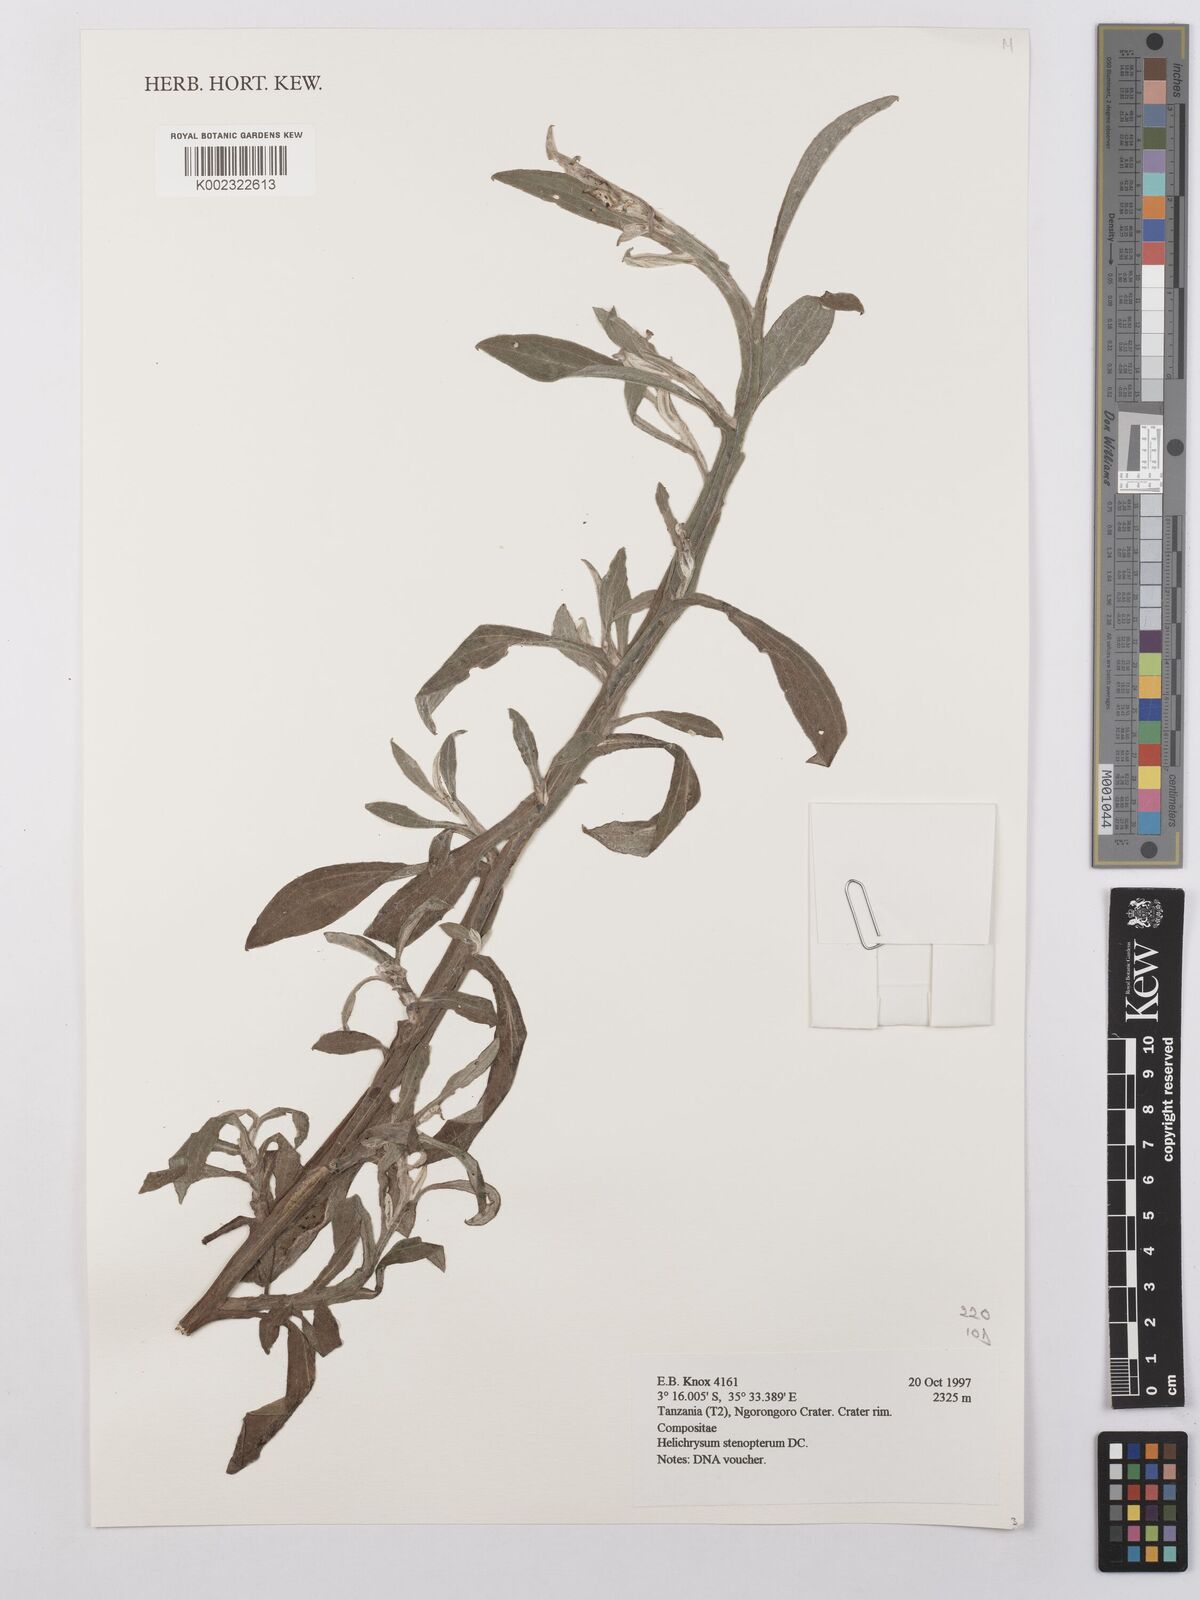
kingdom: Plantae
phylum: Tracheophyta
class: Magnoliopsida
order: Asterales
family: Asteraceae
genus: Helichrysum
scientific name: Helichrysum stenopterum
